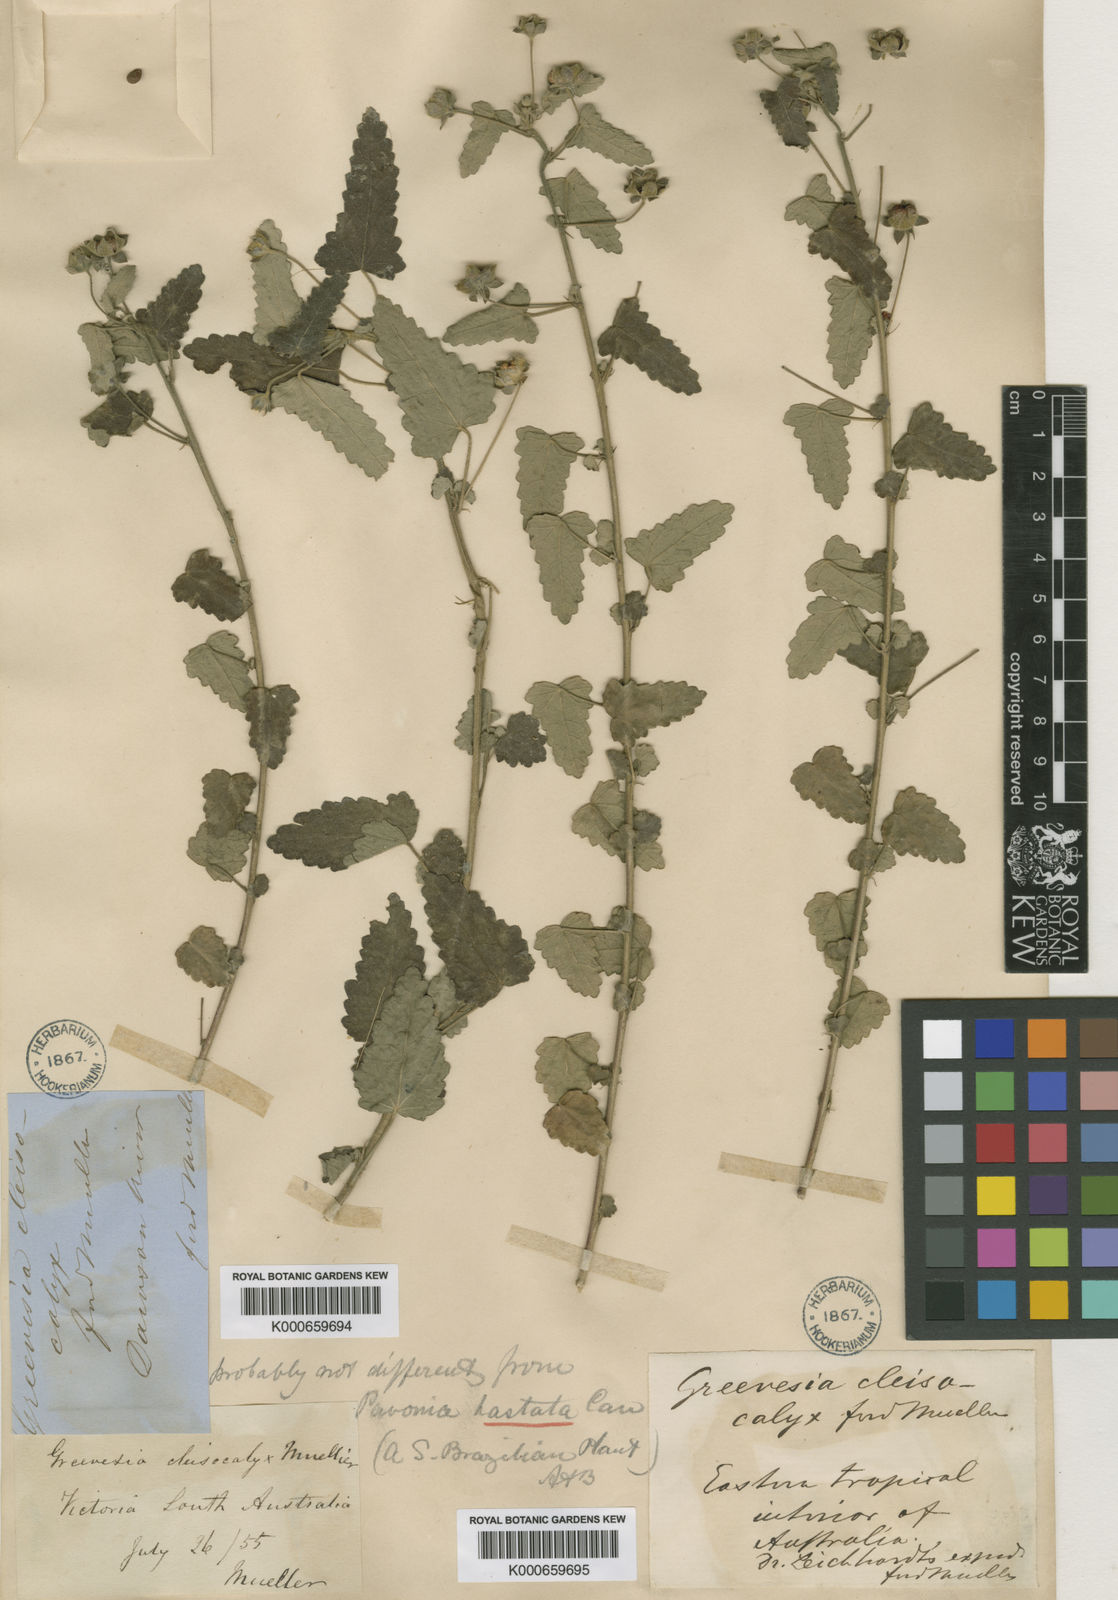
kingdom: Plantae
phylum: Tracheophyta
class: Magnoliopsida
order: Malvales
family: Malvaceae
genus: Pavonia
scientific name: Pavonia hastata
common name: Spearleaf swampmallow
